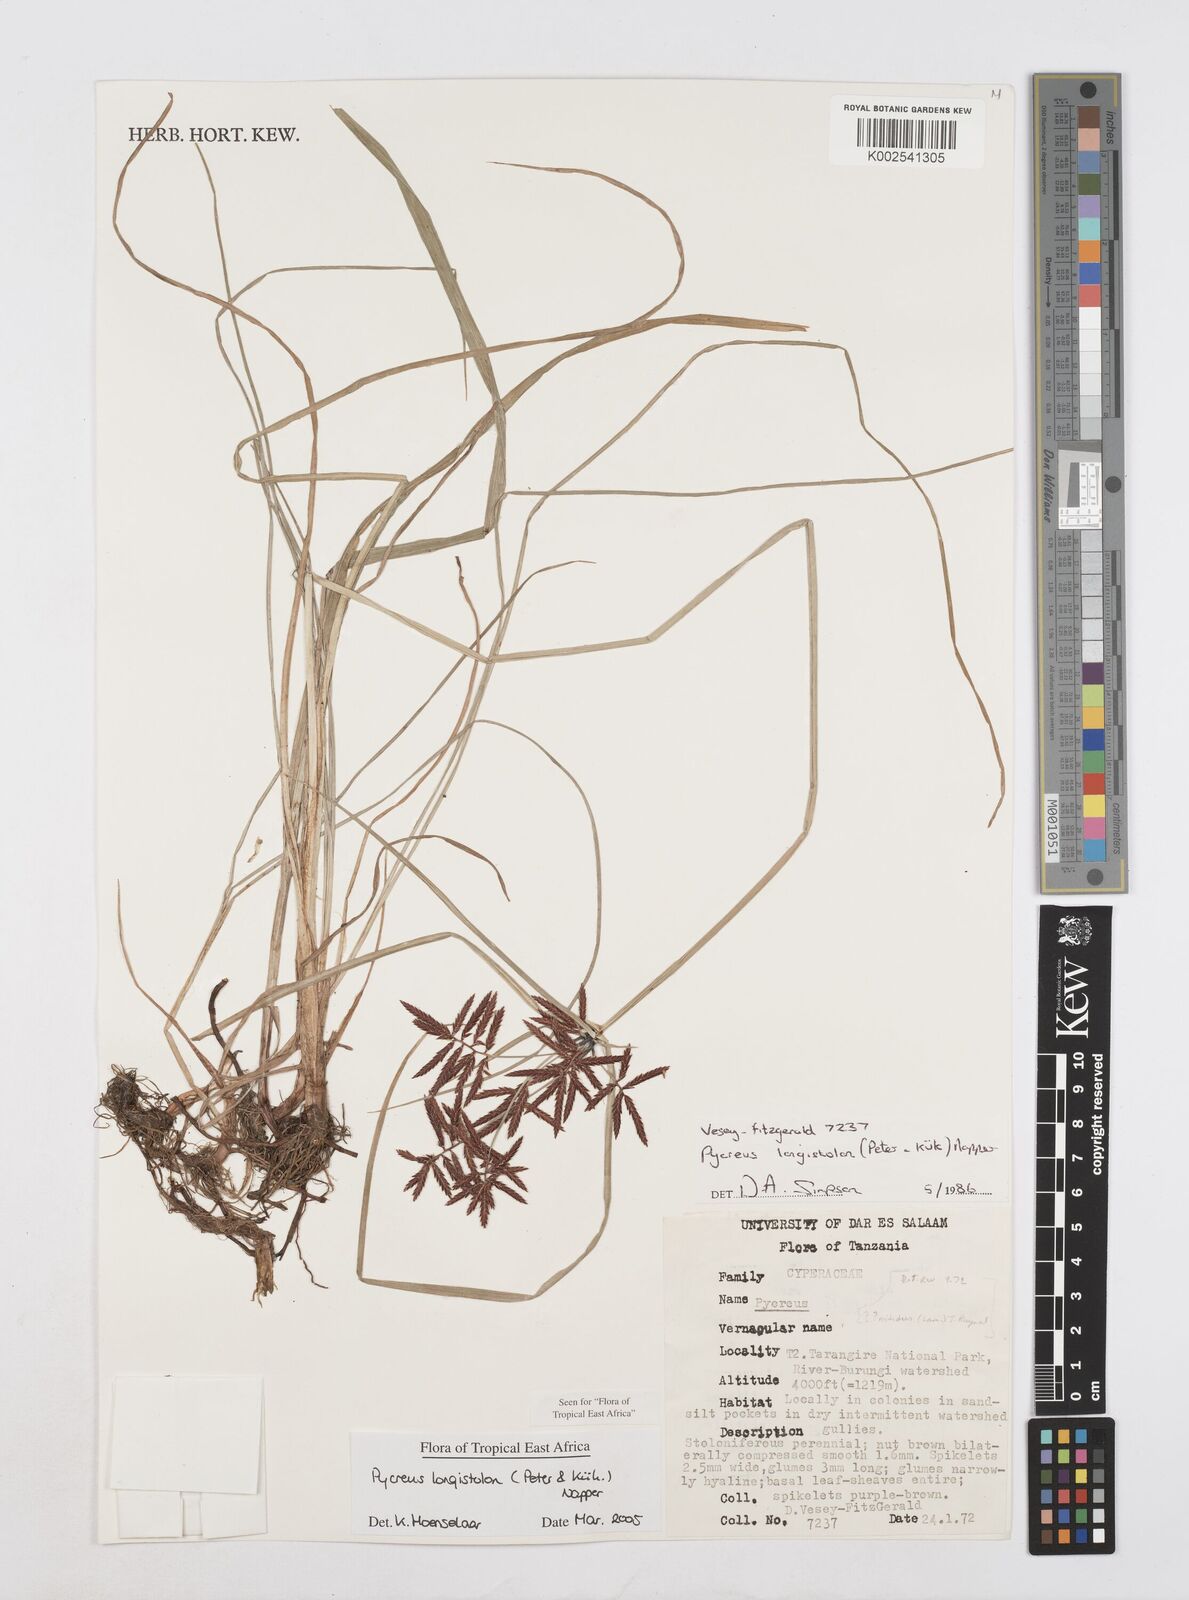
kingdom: Plantae
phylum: Tracheophyta
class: Liliopsida
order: Poales
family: Cyperaceae
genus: Cyperus
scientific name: Cyperus chrysanthus
